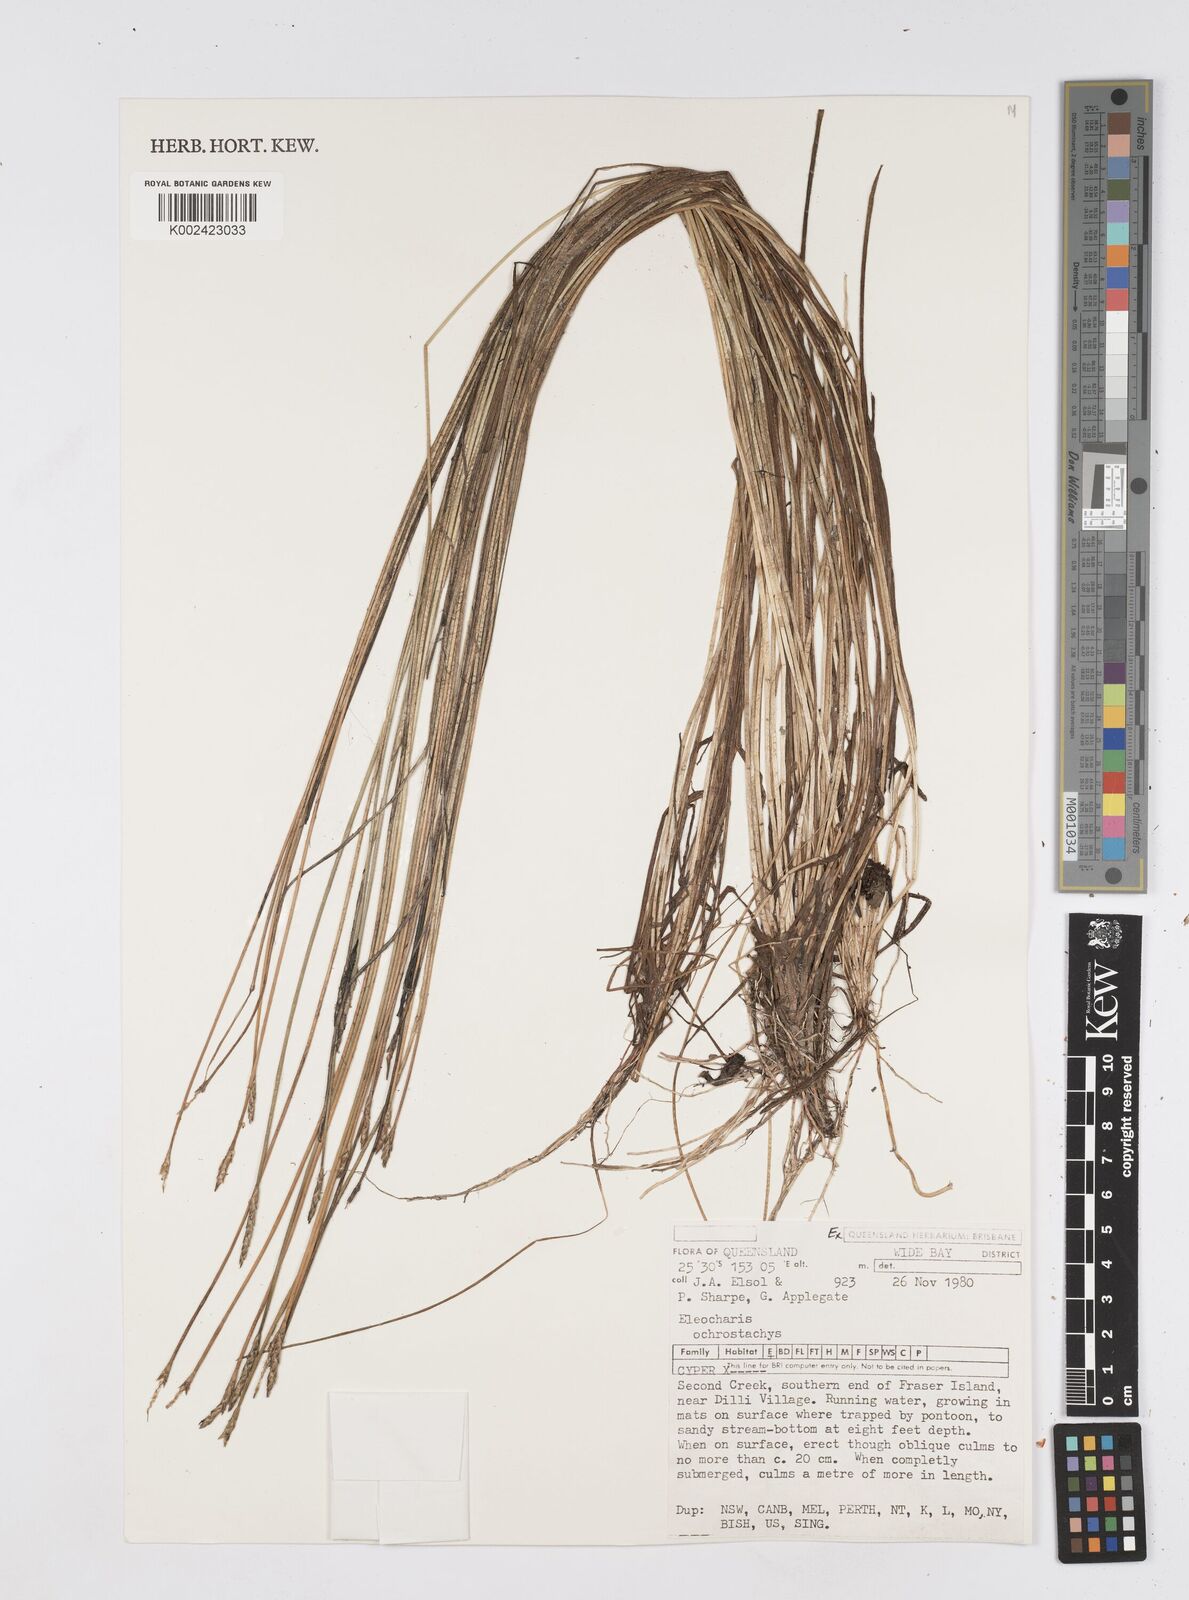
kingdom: Plantae
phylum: Tracheophyta
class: Liliopsida
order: Poales
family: Cyperaceae
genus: Eleocharis
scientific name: Eleocharis ochrostachys
